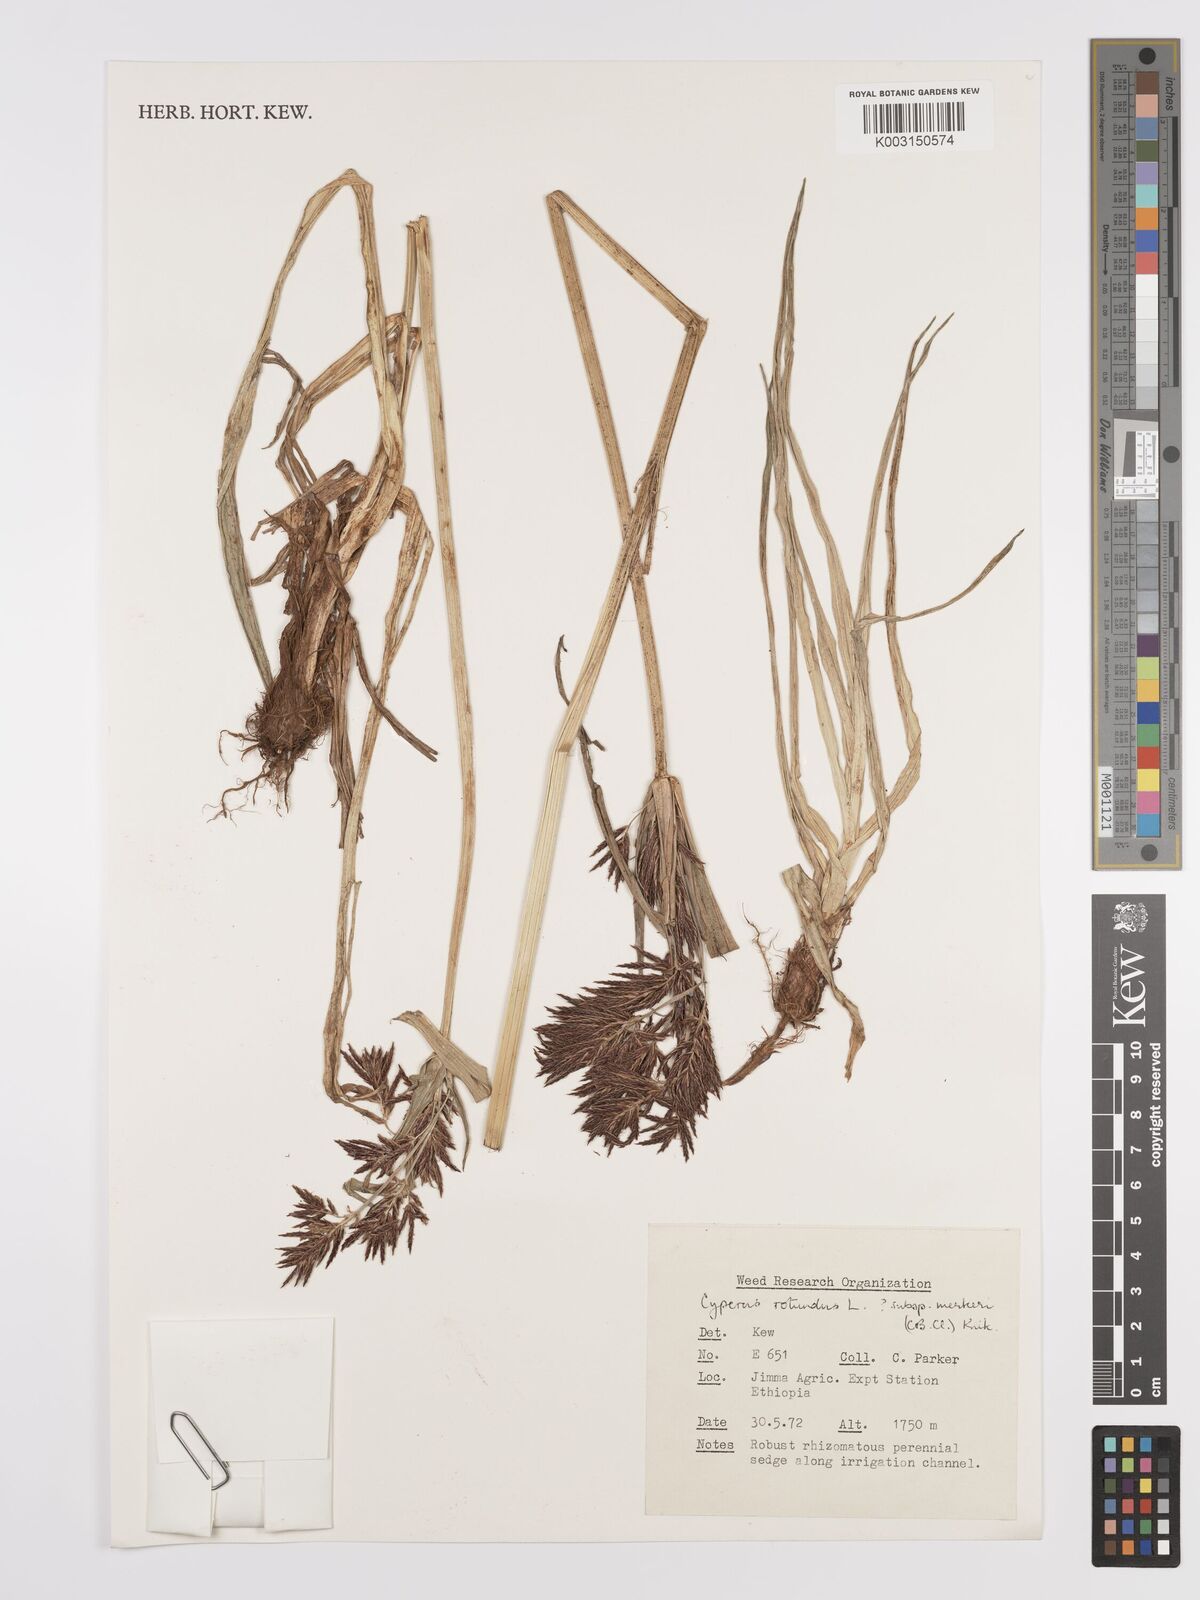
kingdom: Plantae
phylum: Tracheophyta
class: Liliopsida
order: Poales
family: Cyperaceae
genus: Cyperus
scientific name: Cyperus rotundus
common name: Nutgrass
